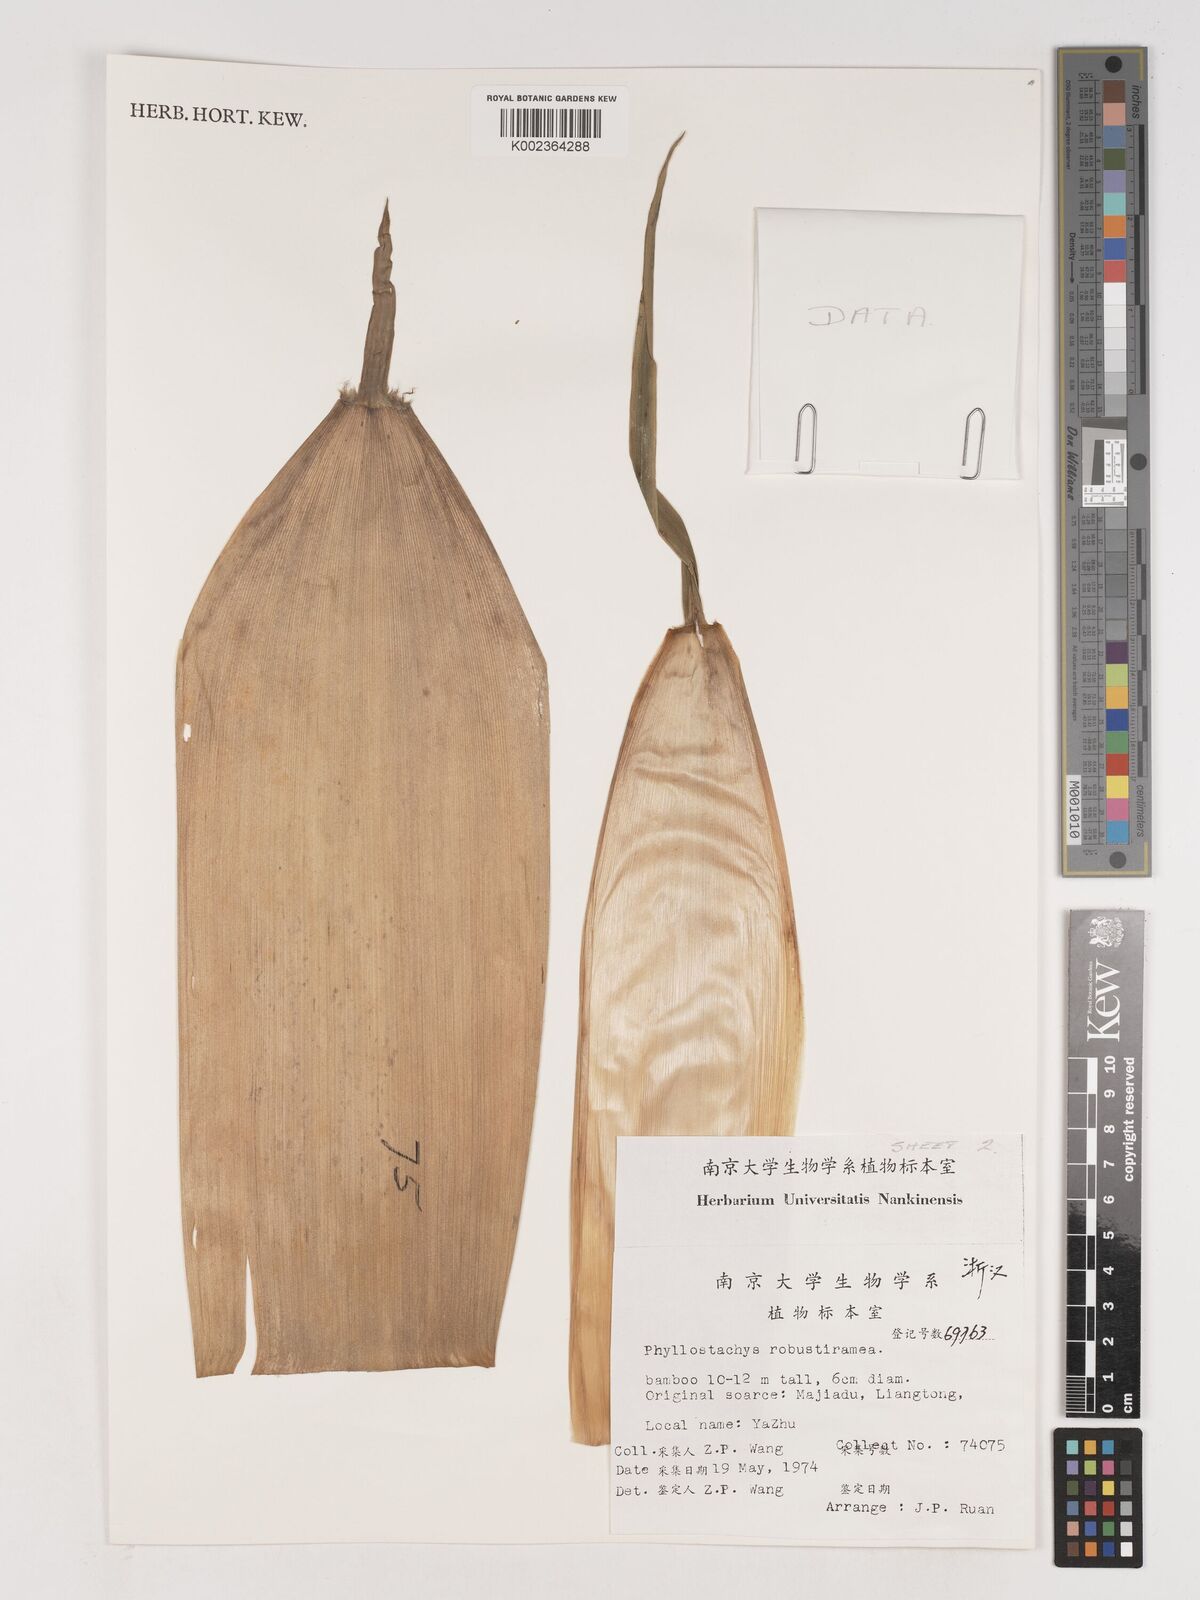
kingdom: Plantae
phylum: Tracheophyta
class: Liliopsida
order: Poales
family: Poaceae
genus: Phyllostachys
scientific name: Phyllostachys robustiramea
